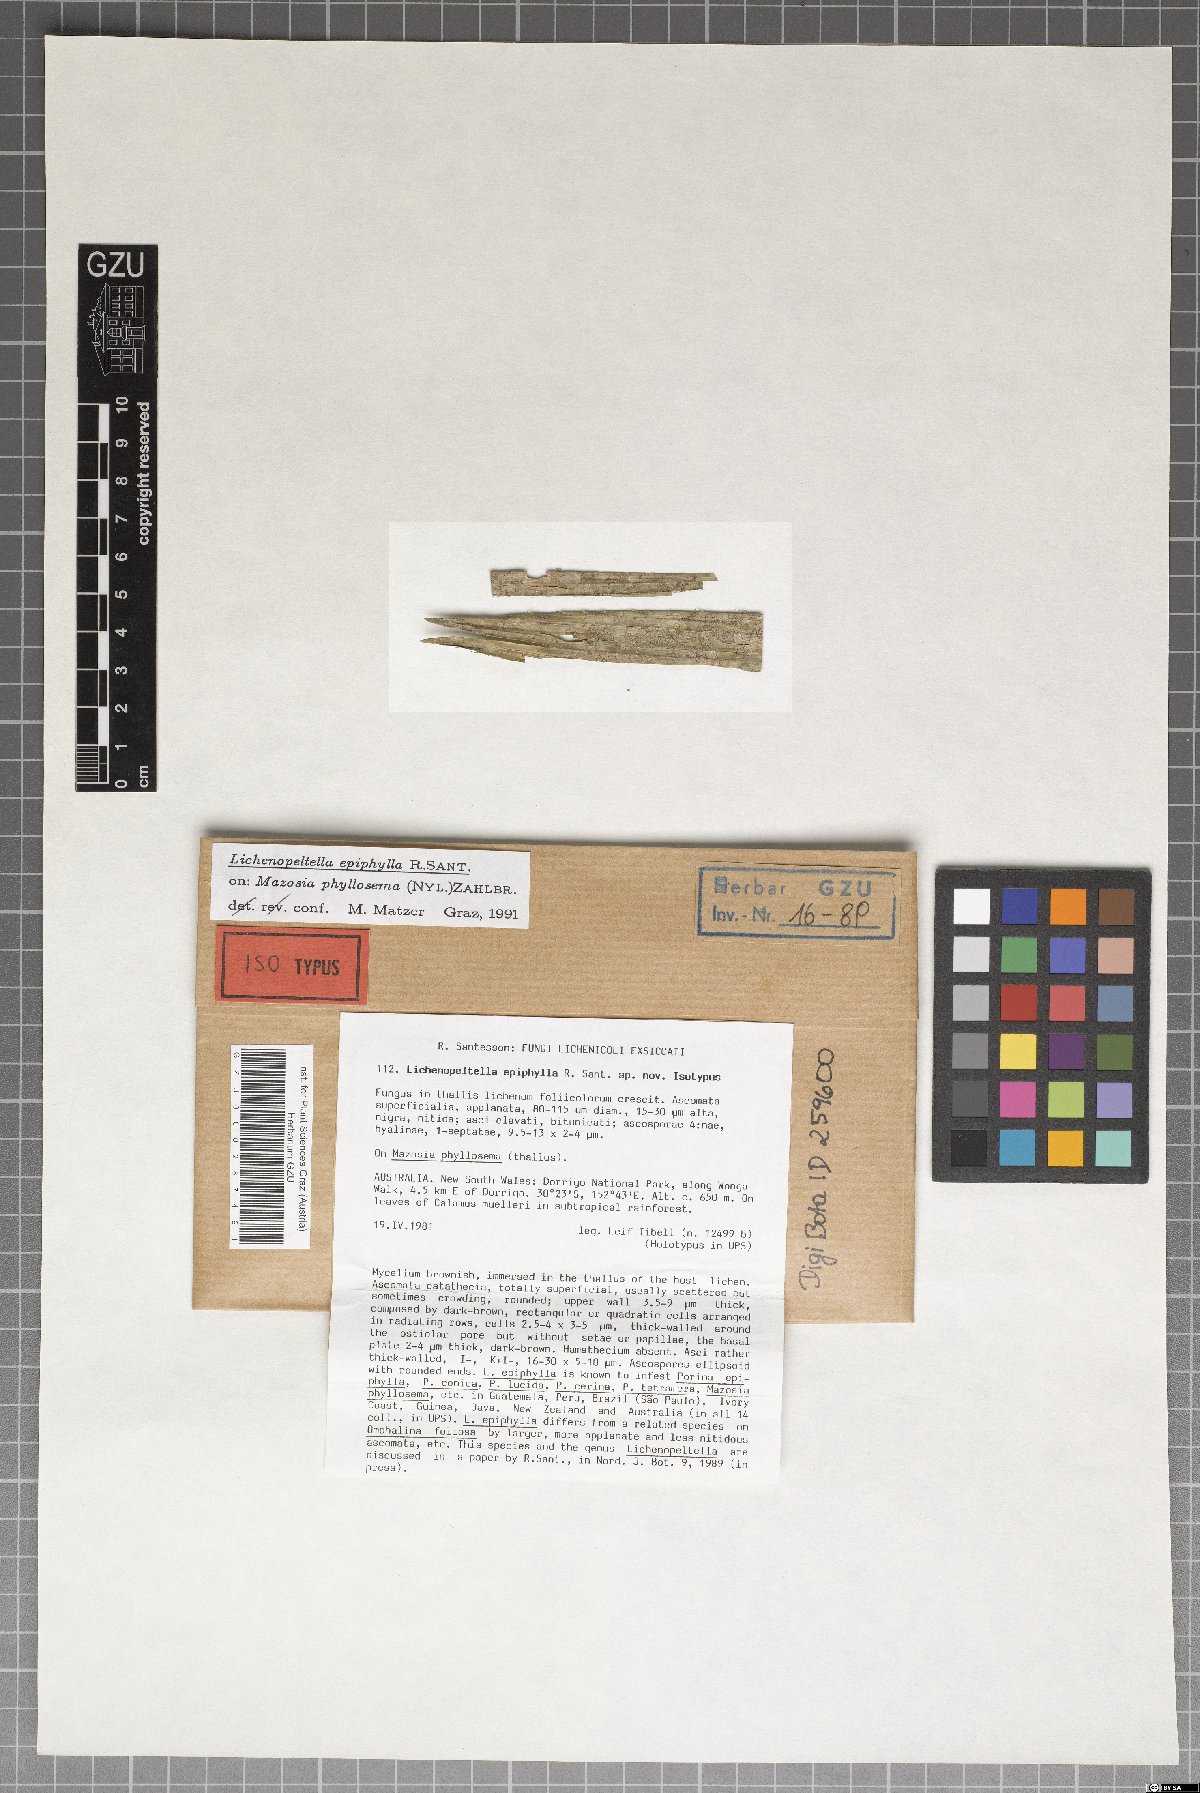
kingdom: Fungi
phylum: Ascomycota
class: Dothideomycetes
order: Microthyriales
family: Microthyriaceae
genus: Lichenopeltella
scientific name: Lichenopeltella epiphylla
